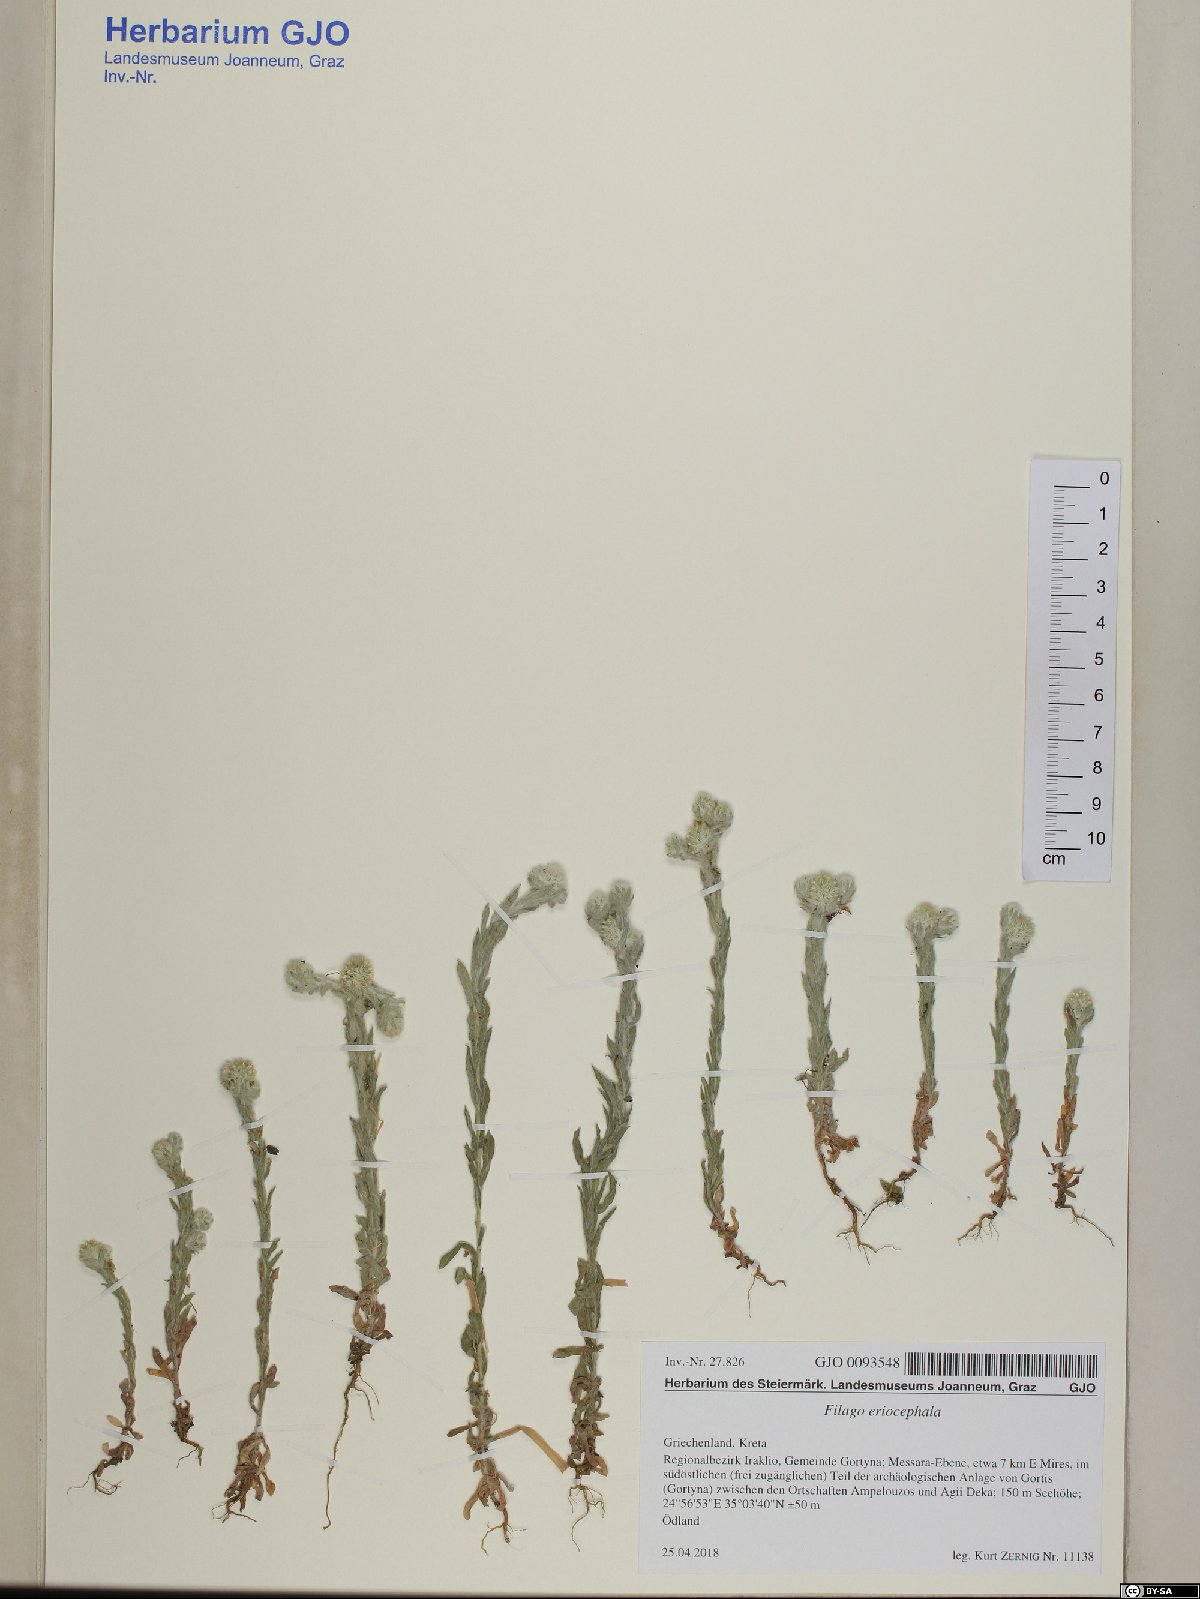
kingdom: Plantae
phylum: Tracheophyta
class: Magnoliopsida
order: Asterales
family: Asteraceae
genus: Filago
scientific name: Filago eriocephala
